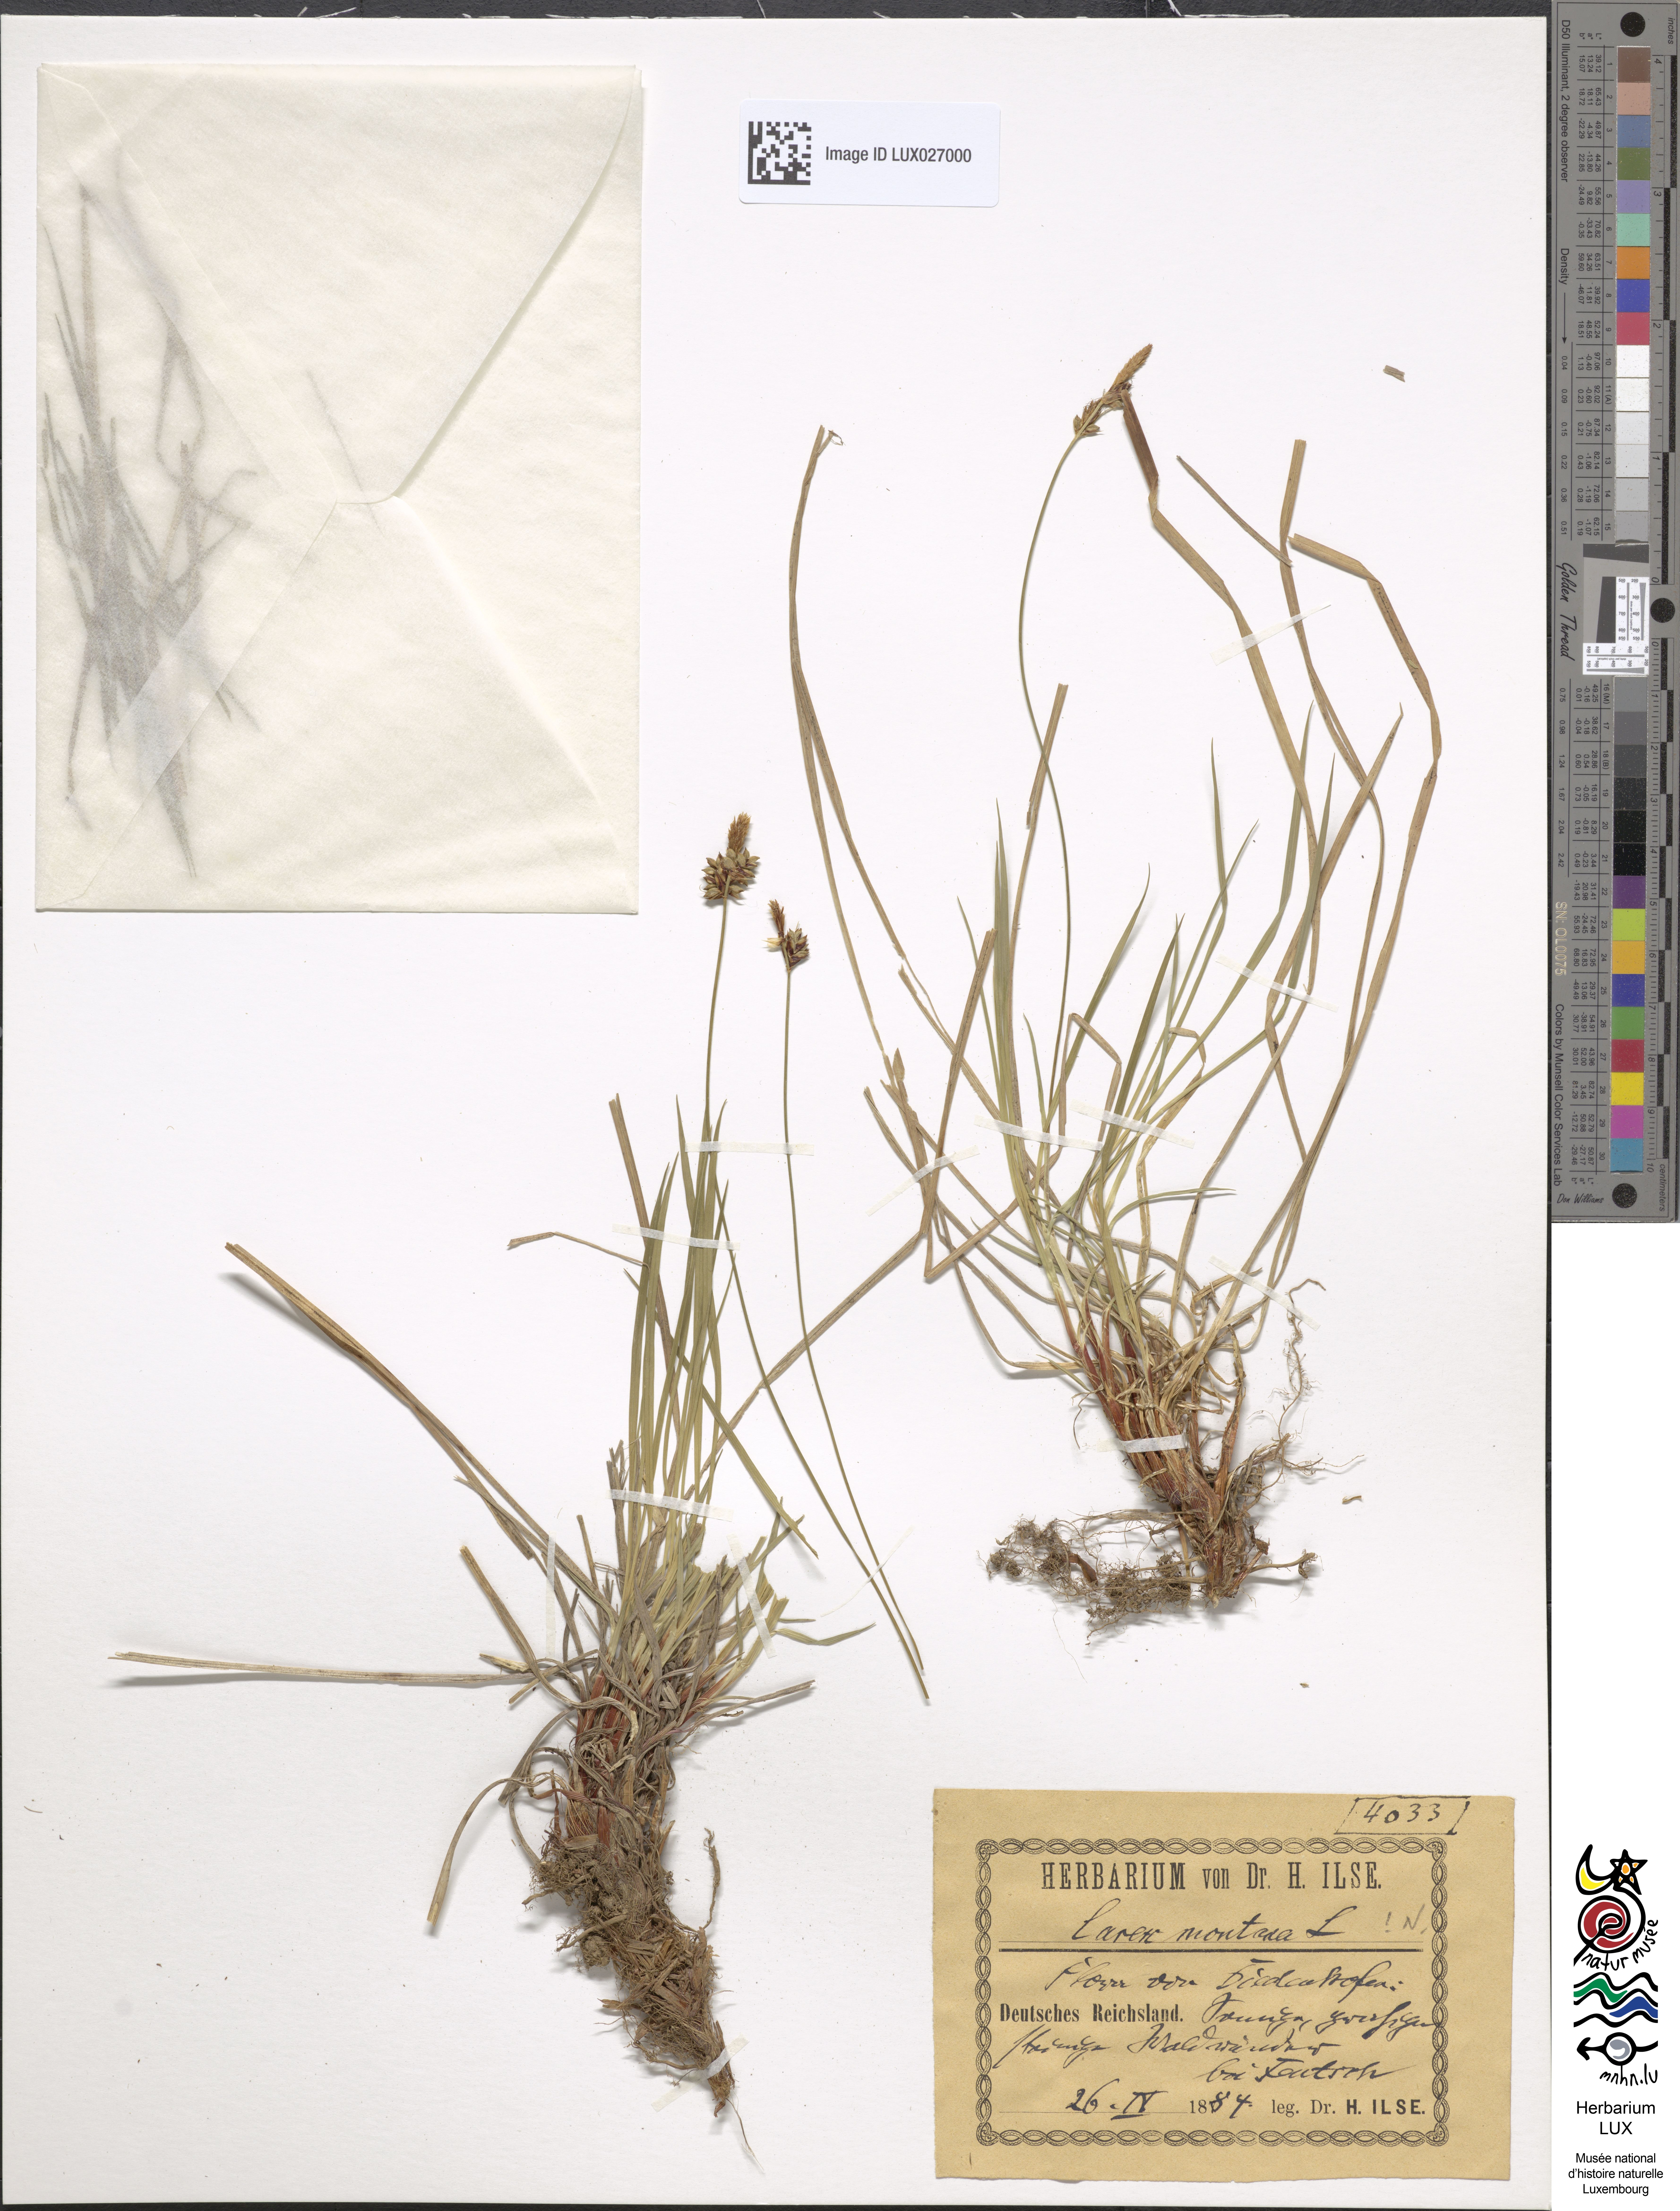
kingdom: Plantae
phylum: Tracheophyta
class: Liliopsida
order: Poales
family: Cyperaceae
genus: Carex
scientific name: Carex montana
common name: Soft-leaved sedge
